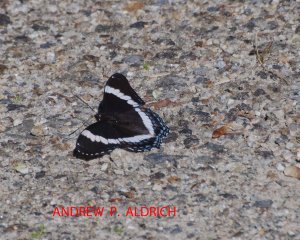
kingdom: Animalia
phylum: Arthropoda
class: Insecta
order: Lepidoptera
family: Nymphalidae
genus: Limenitis
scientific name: Limenitis arthemis
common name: Red-spotted Admiral
